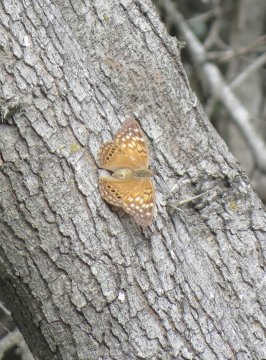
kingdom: Animalia
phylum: Arthropoda
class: Insecta
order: Lepidoptera
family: Nymphalidae
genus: Asterocampa
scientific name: Asterocampa clyton
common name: Tawny Emperor
